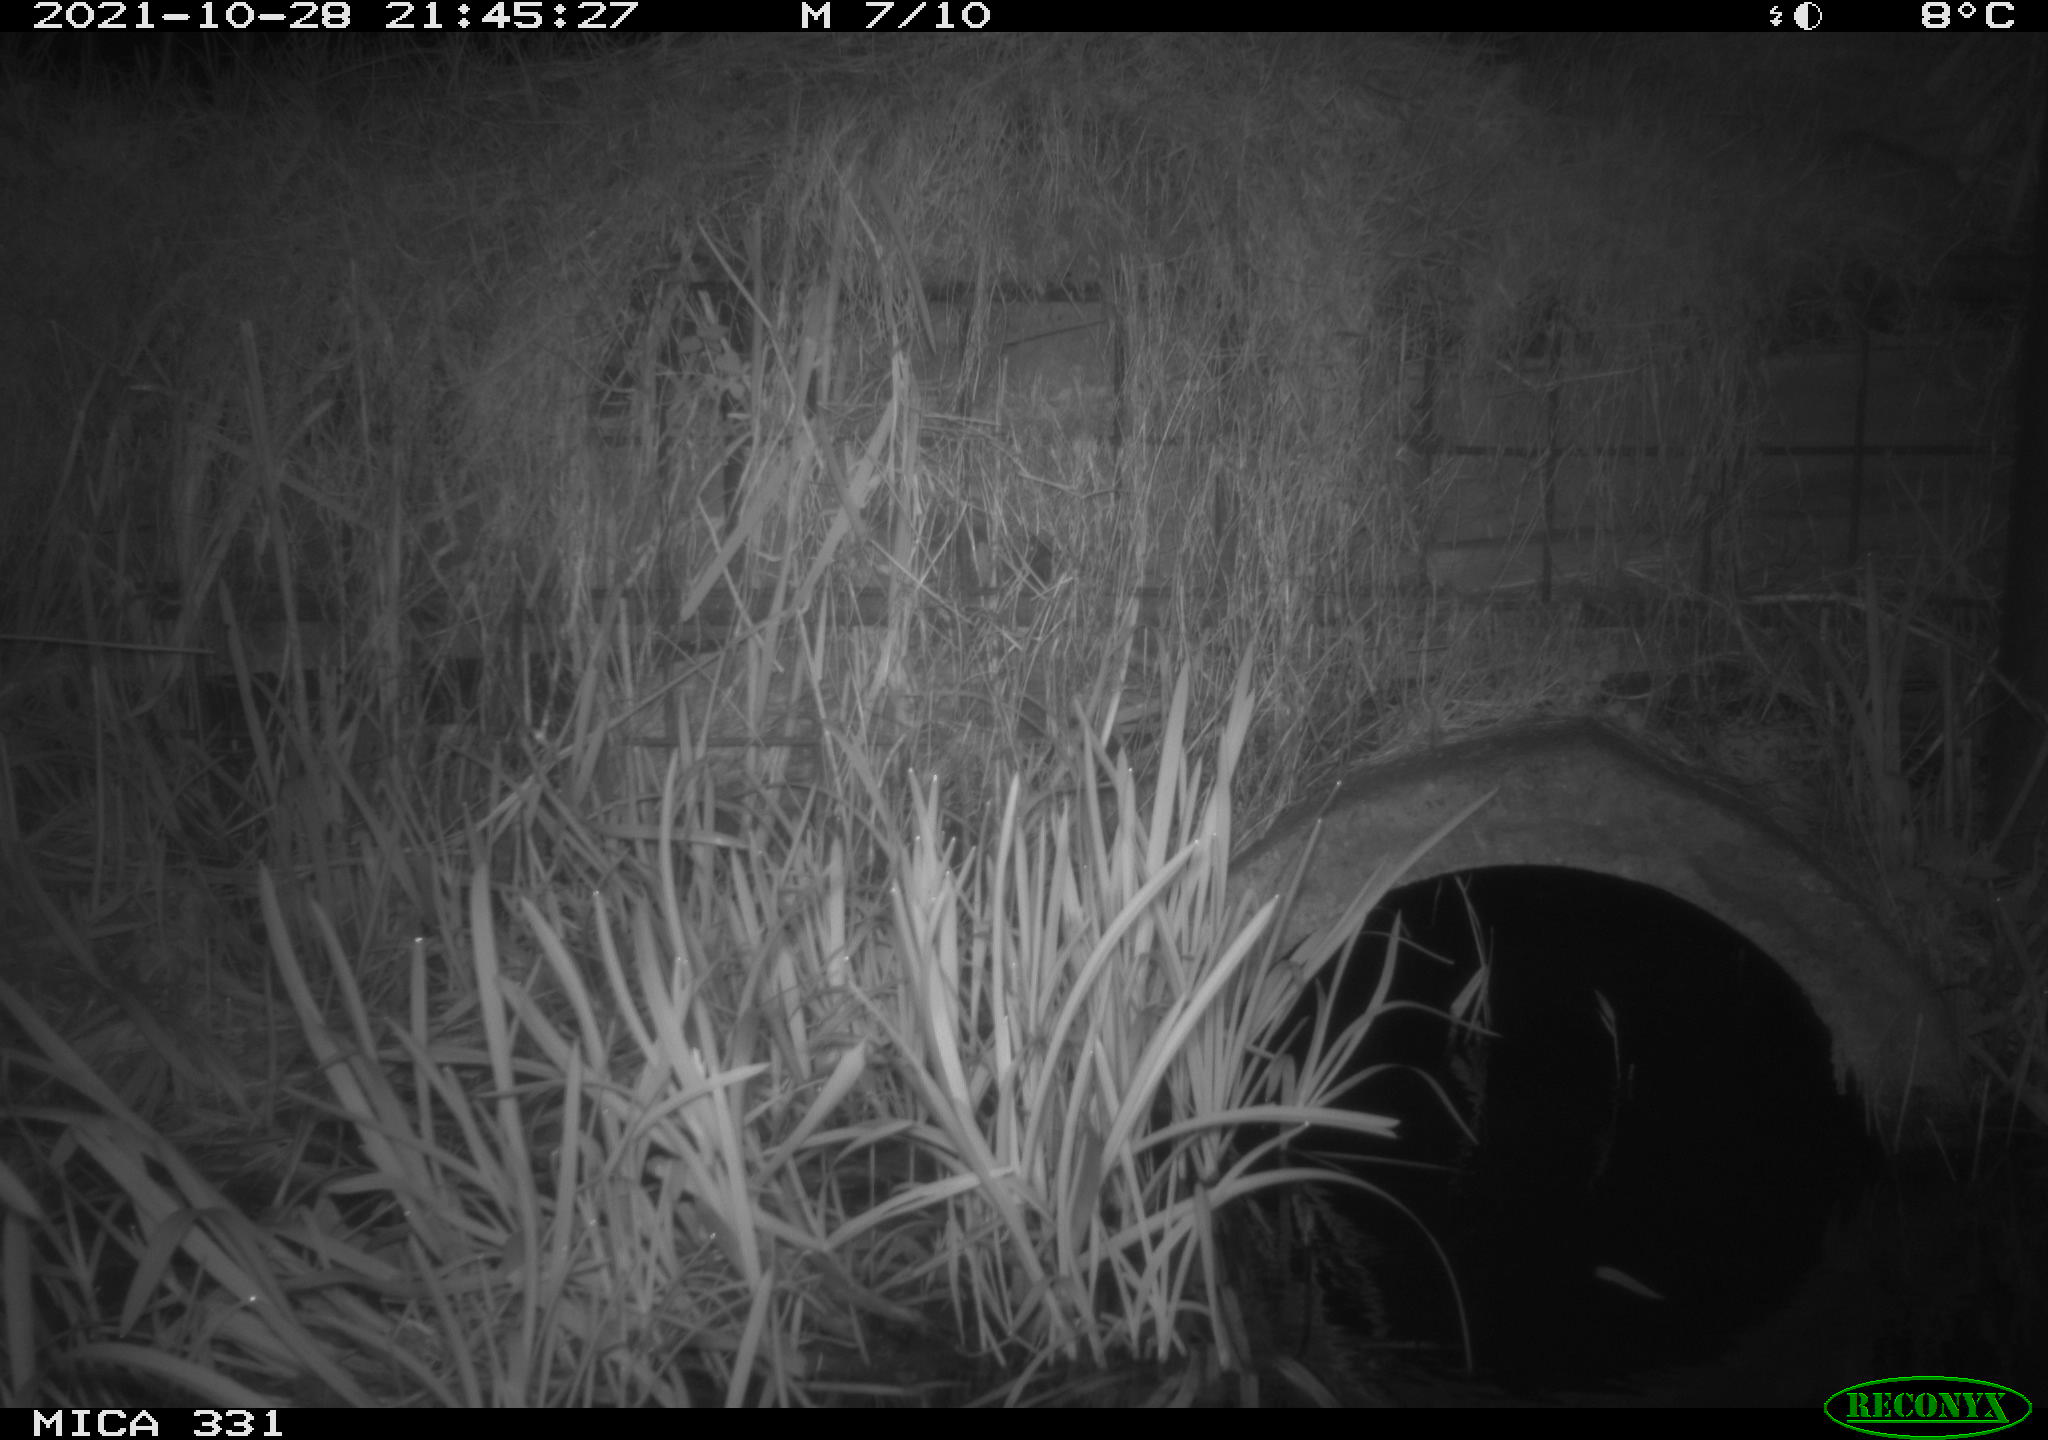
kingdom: Animalia
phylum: Chordata
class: Mammalia
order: Rodentia
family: Muridae
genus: Rattus
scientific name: Rattus norvegicus
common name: Brown rat
